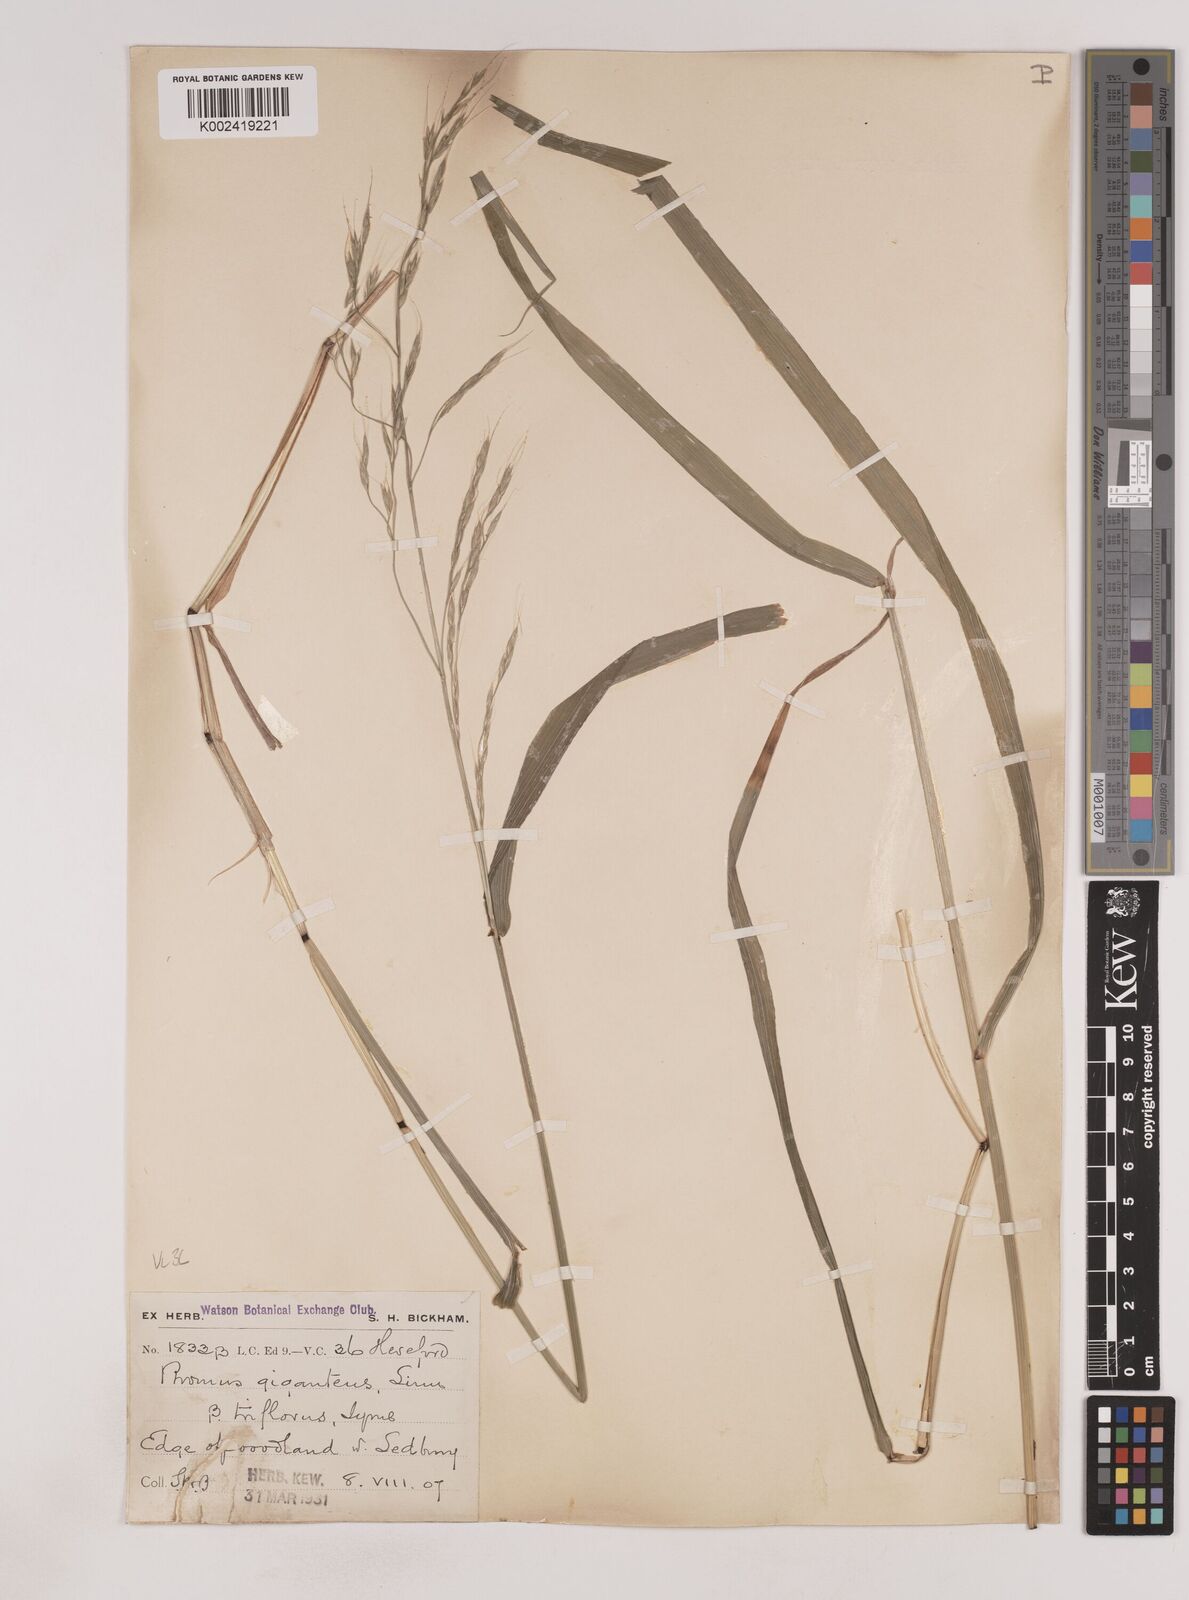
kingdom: Plantae
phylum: Tracheophyta
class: Liliopsida
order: Poales
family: Poaceae
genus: Lolium
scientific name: Lolium giganteum
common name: Giant fescue
